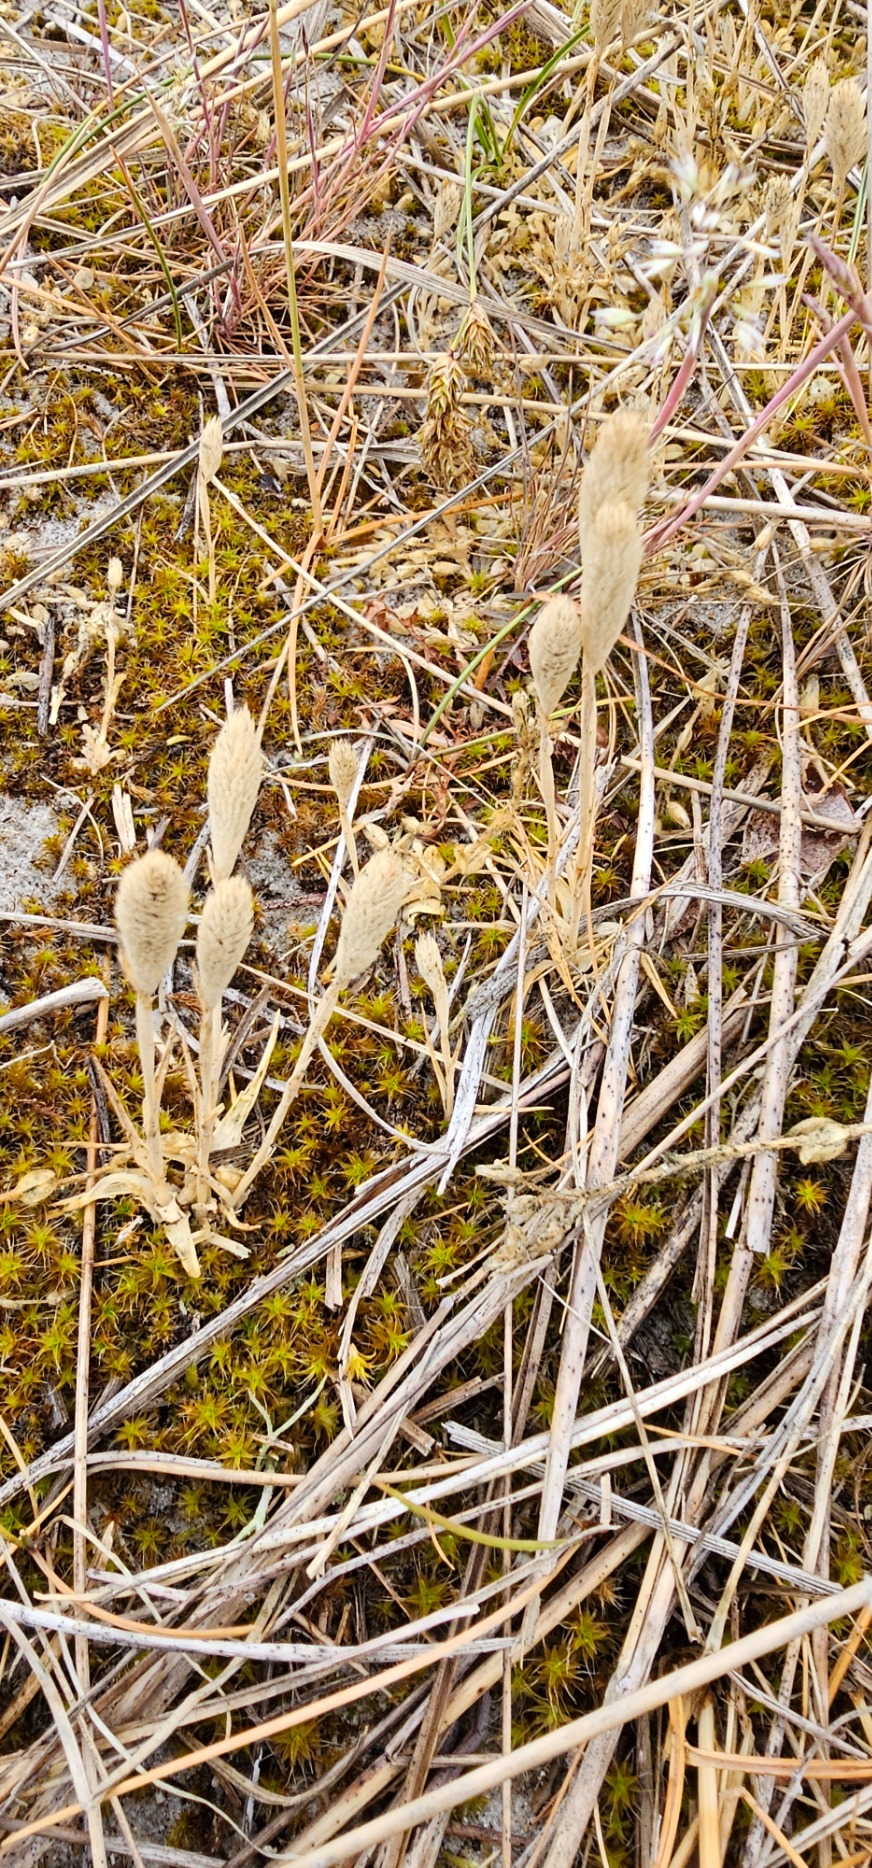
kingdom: Plantae
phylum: Tracheophyta
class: Liliopsida
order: Poales
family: Poaceae
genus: Phleum
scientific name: Phleum arenarium
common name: Sand-rottehale
